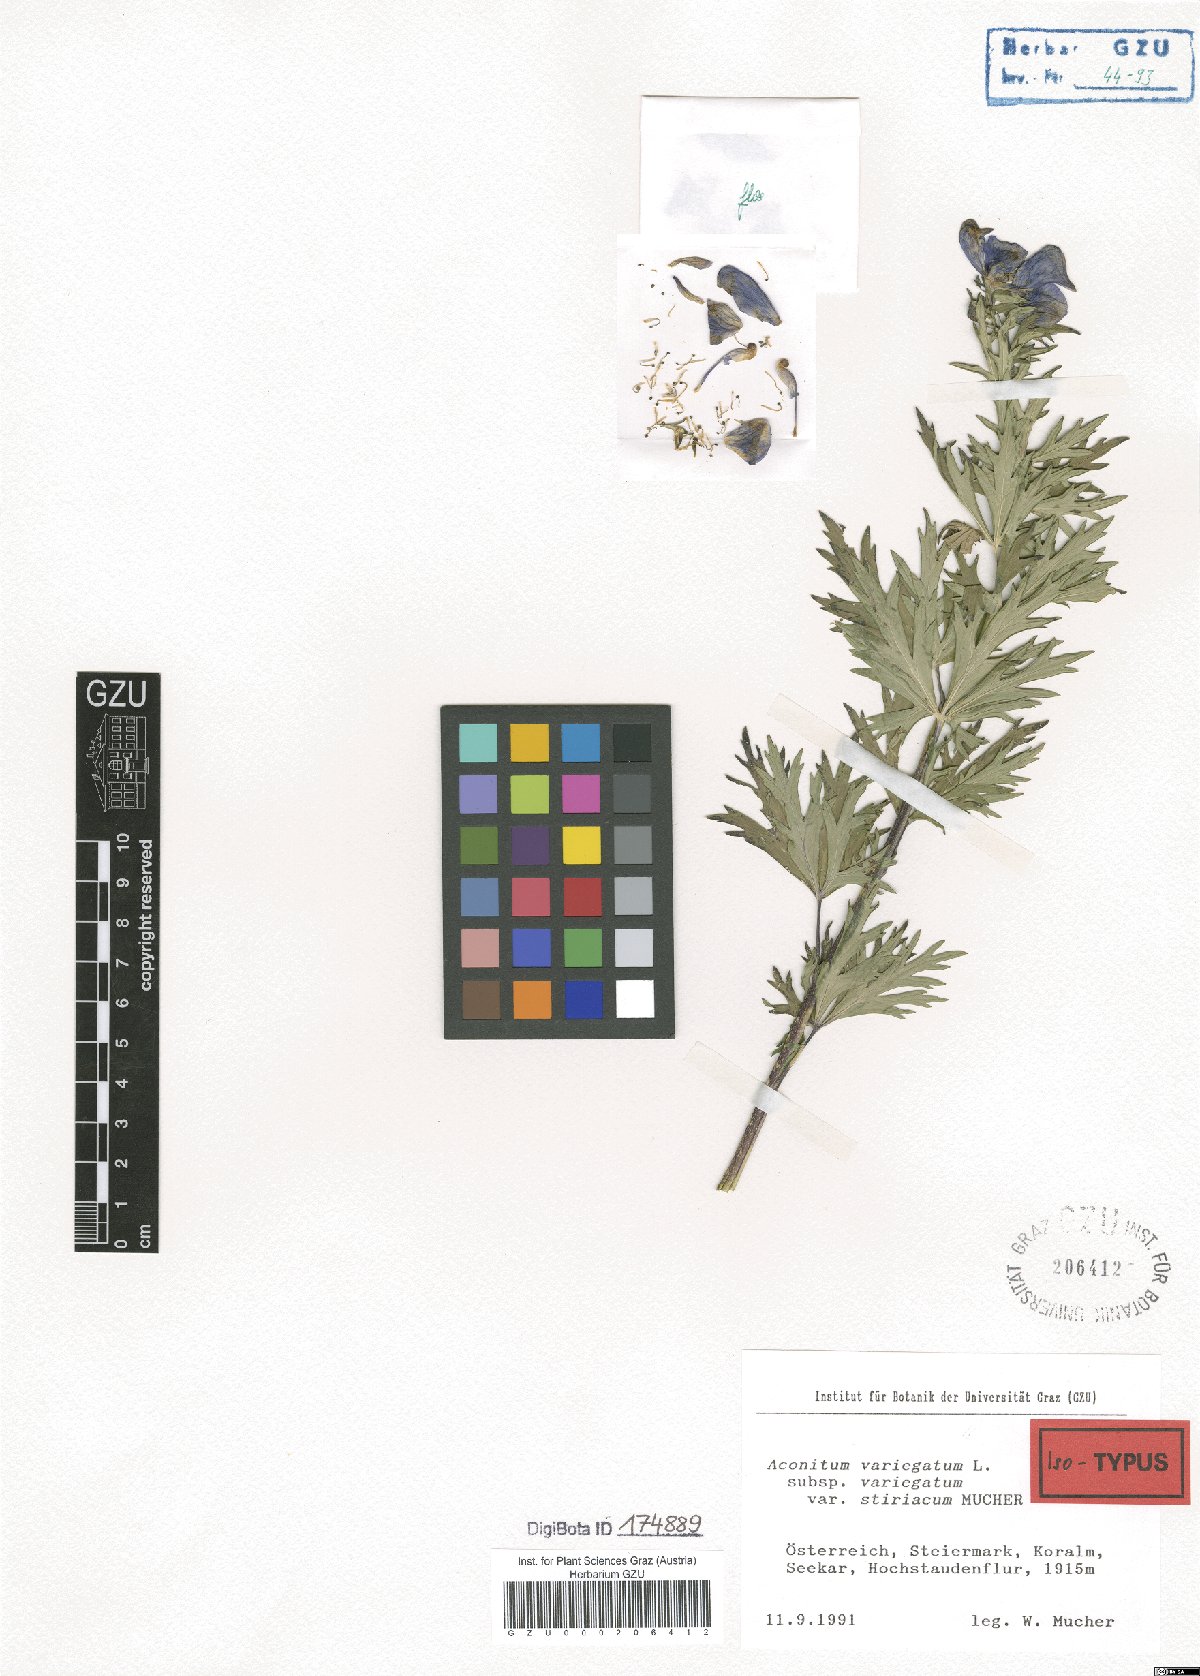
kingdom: Plantae
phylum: Tracheophyta
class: Magnoliopsida
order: Ranunculales
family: Ranunculaceae
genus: Aconitum
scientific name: Aconitum variegatum
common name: Manchurian monkshood
